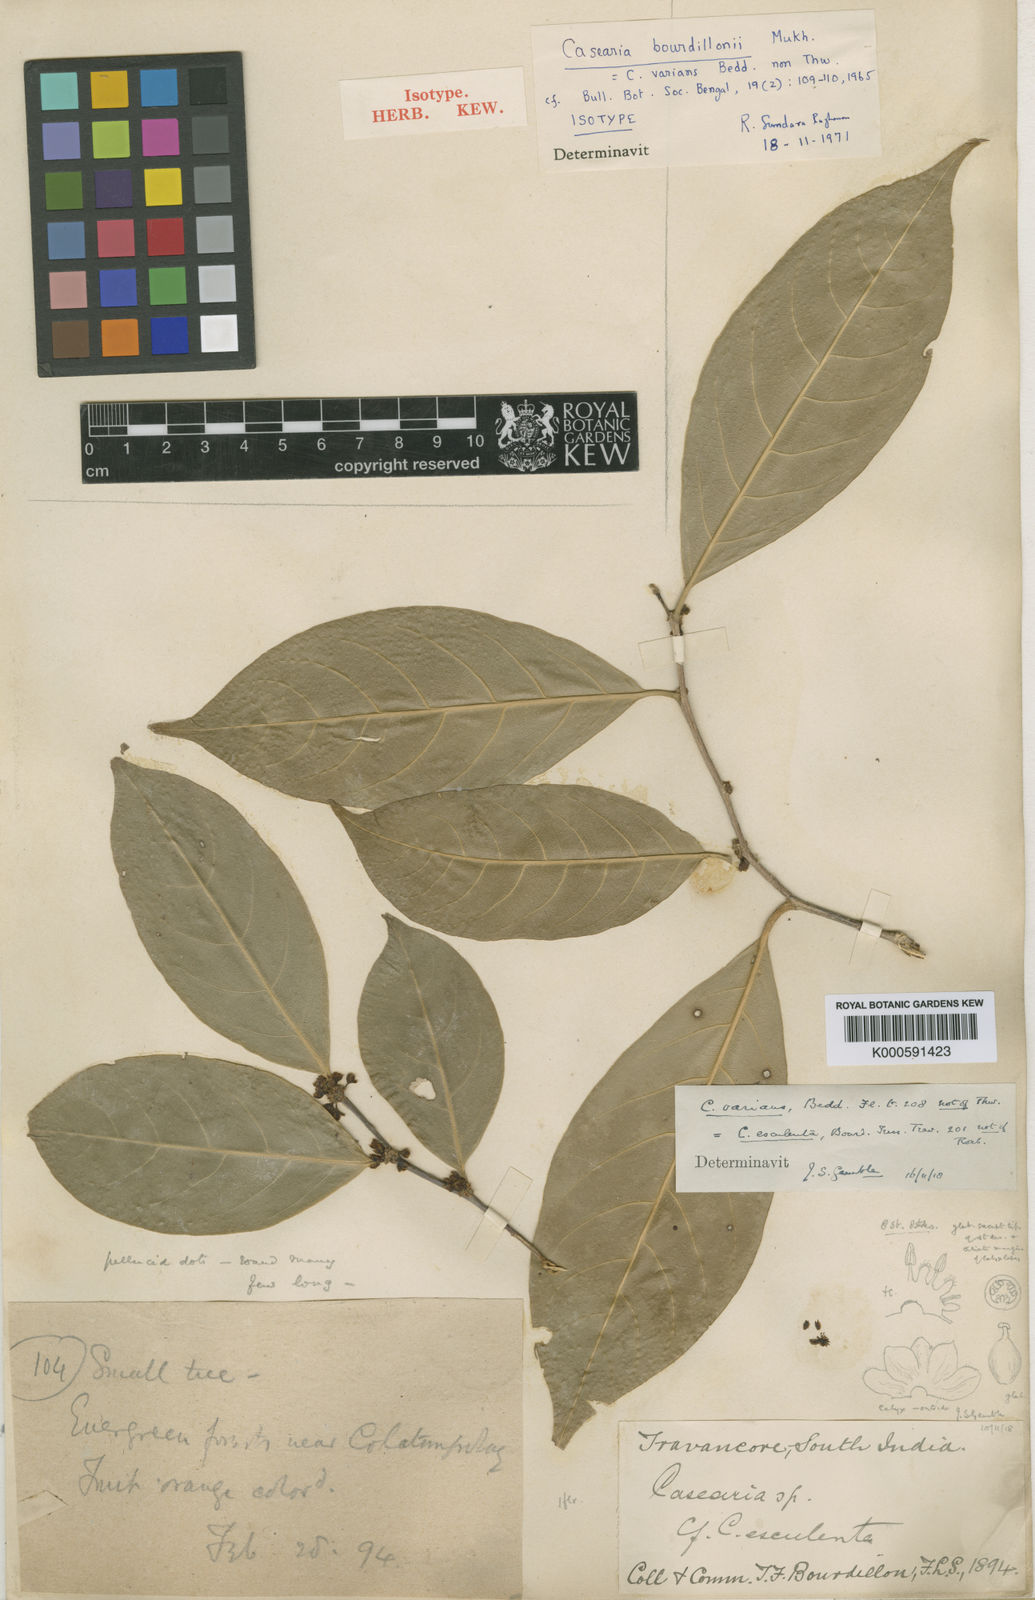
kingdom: Plantae
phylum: Tracheophyta
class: Magnoliopsida
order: Malpighiales
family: Salicaceae
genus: Casearia
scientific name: Casearia zeylanica
